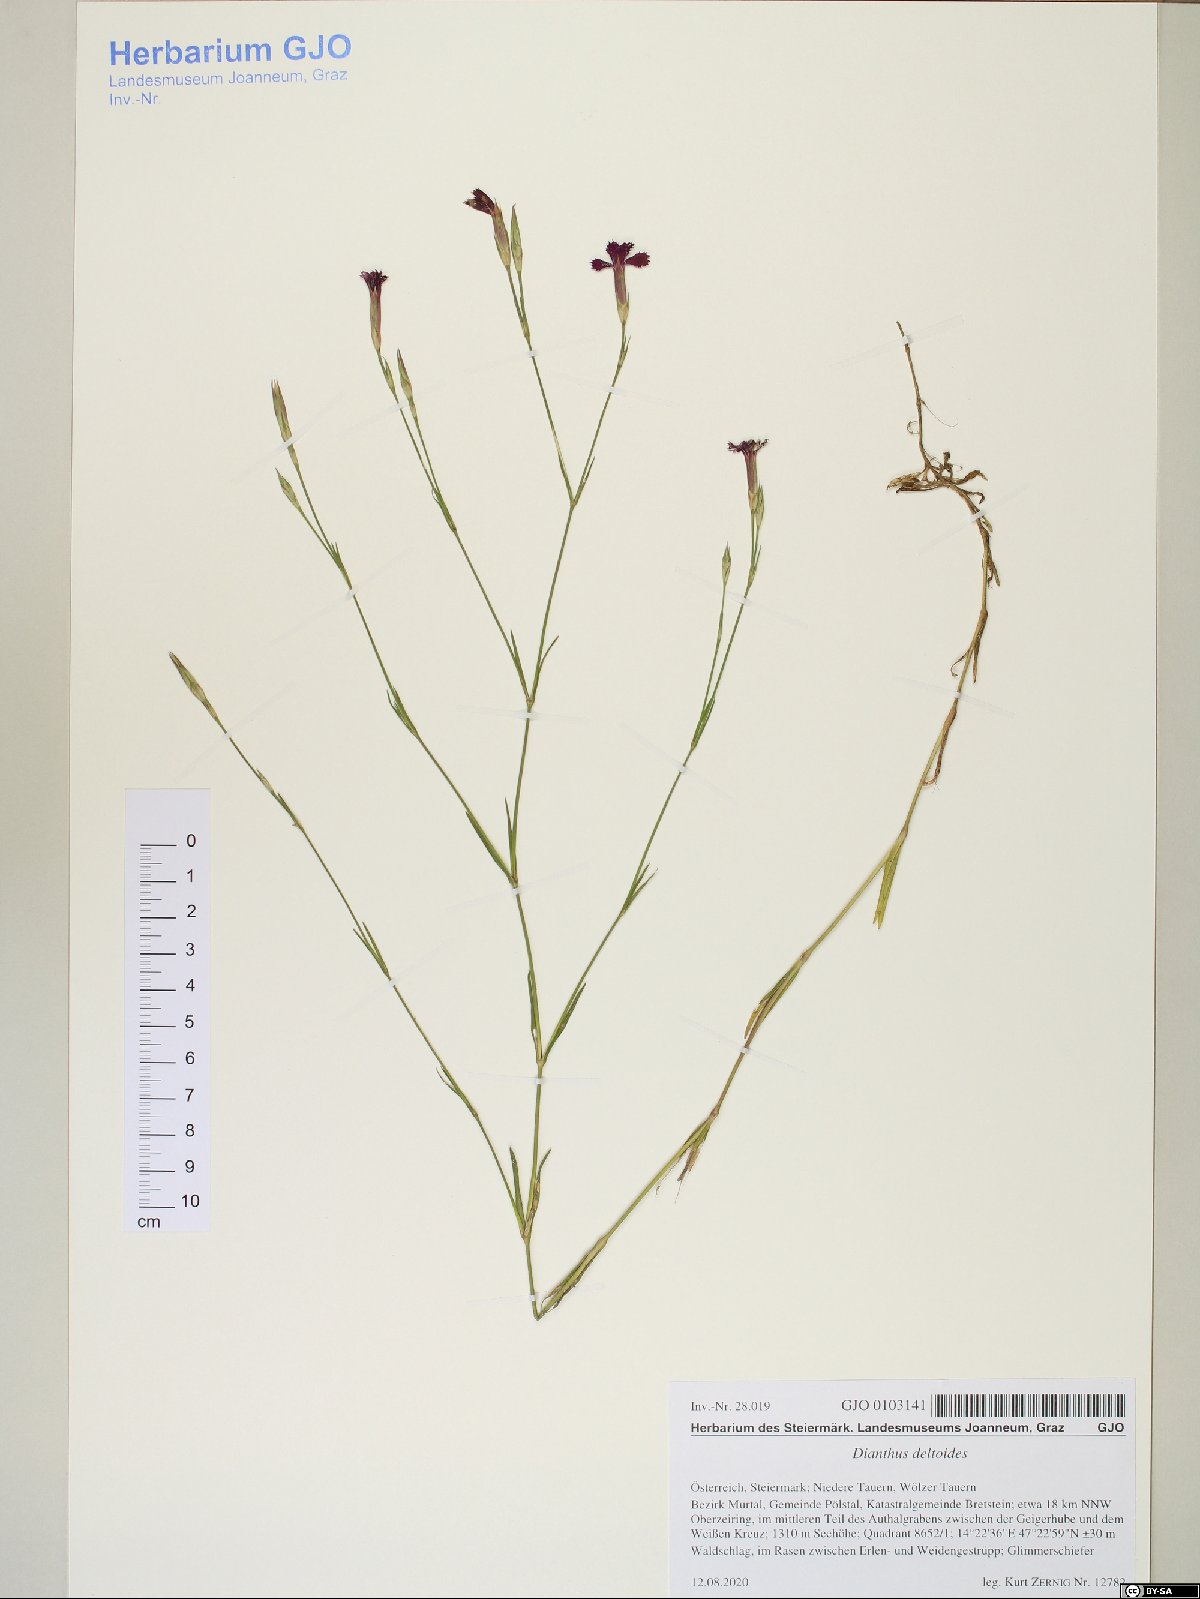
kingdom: Plantae
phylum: Tracheophyta
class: Magnoliopsida
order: Caryophyllales
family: Caryophyllaceae
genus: Dianthus
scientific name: Dianthus deltoides
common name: Maiden pink
